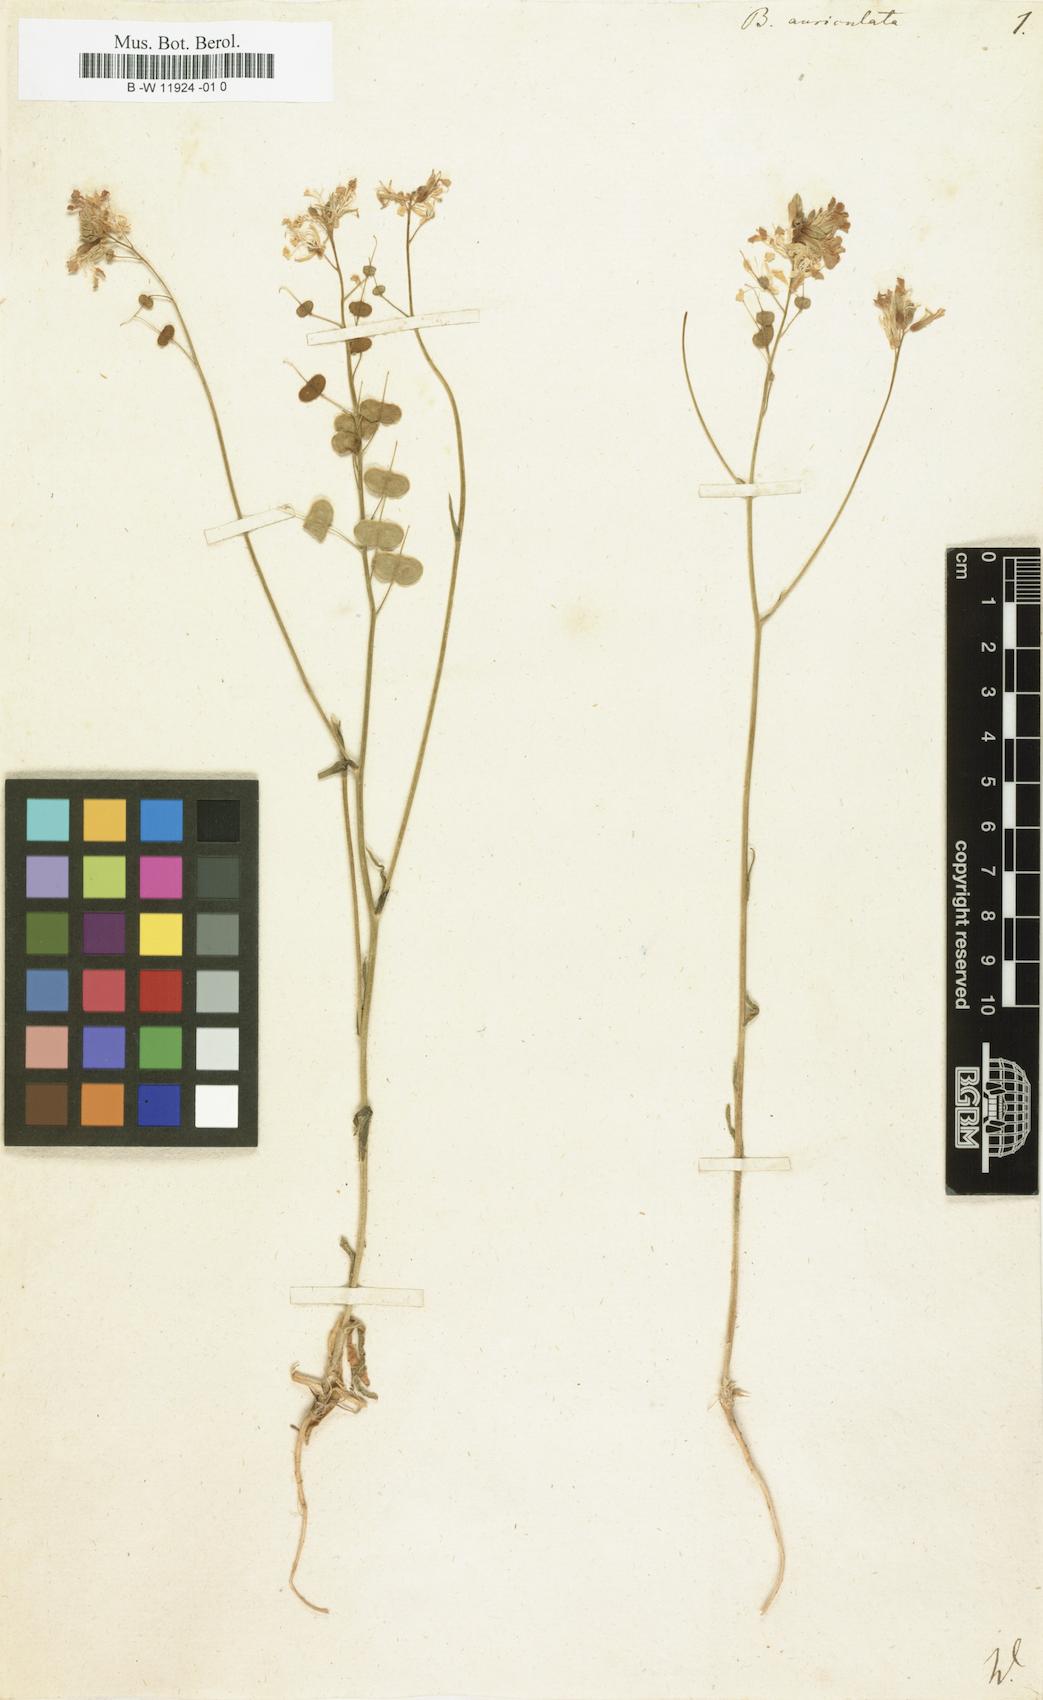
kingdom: Plantae
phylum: Tracheophyta
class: Magnoliopsida
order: Brassicales
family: Brassicaceae
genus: Biscutella
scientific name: Biscutella auriculata
